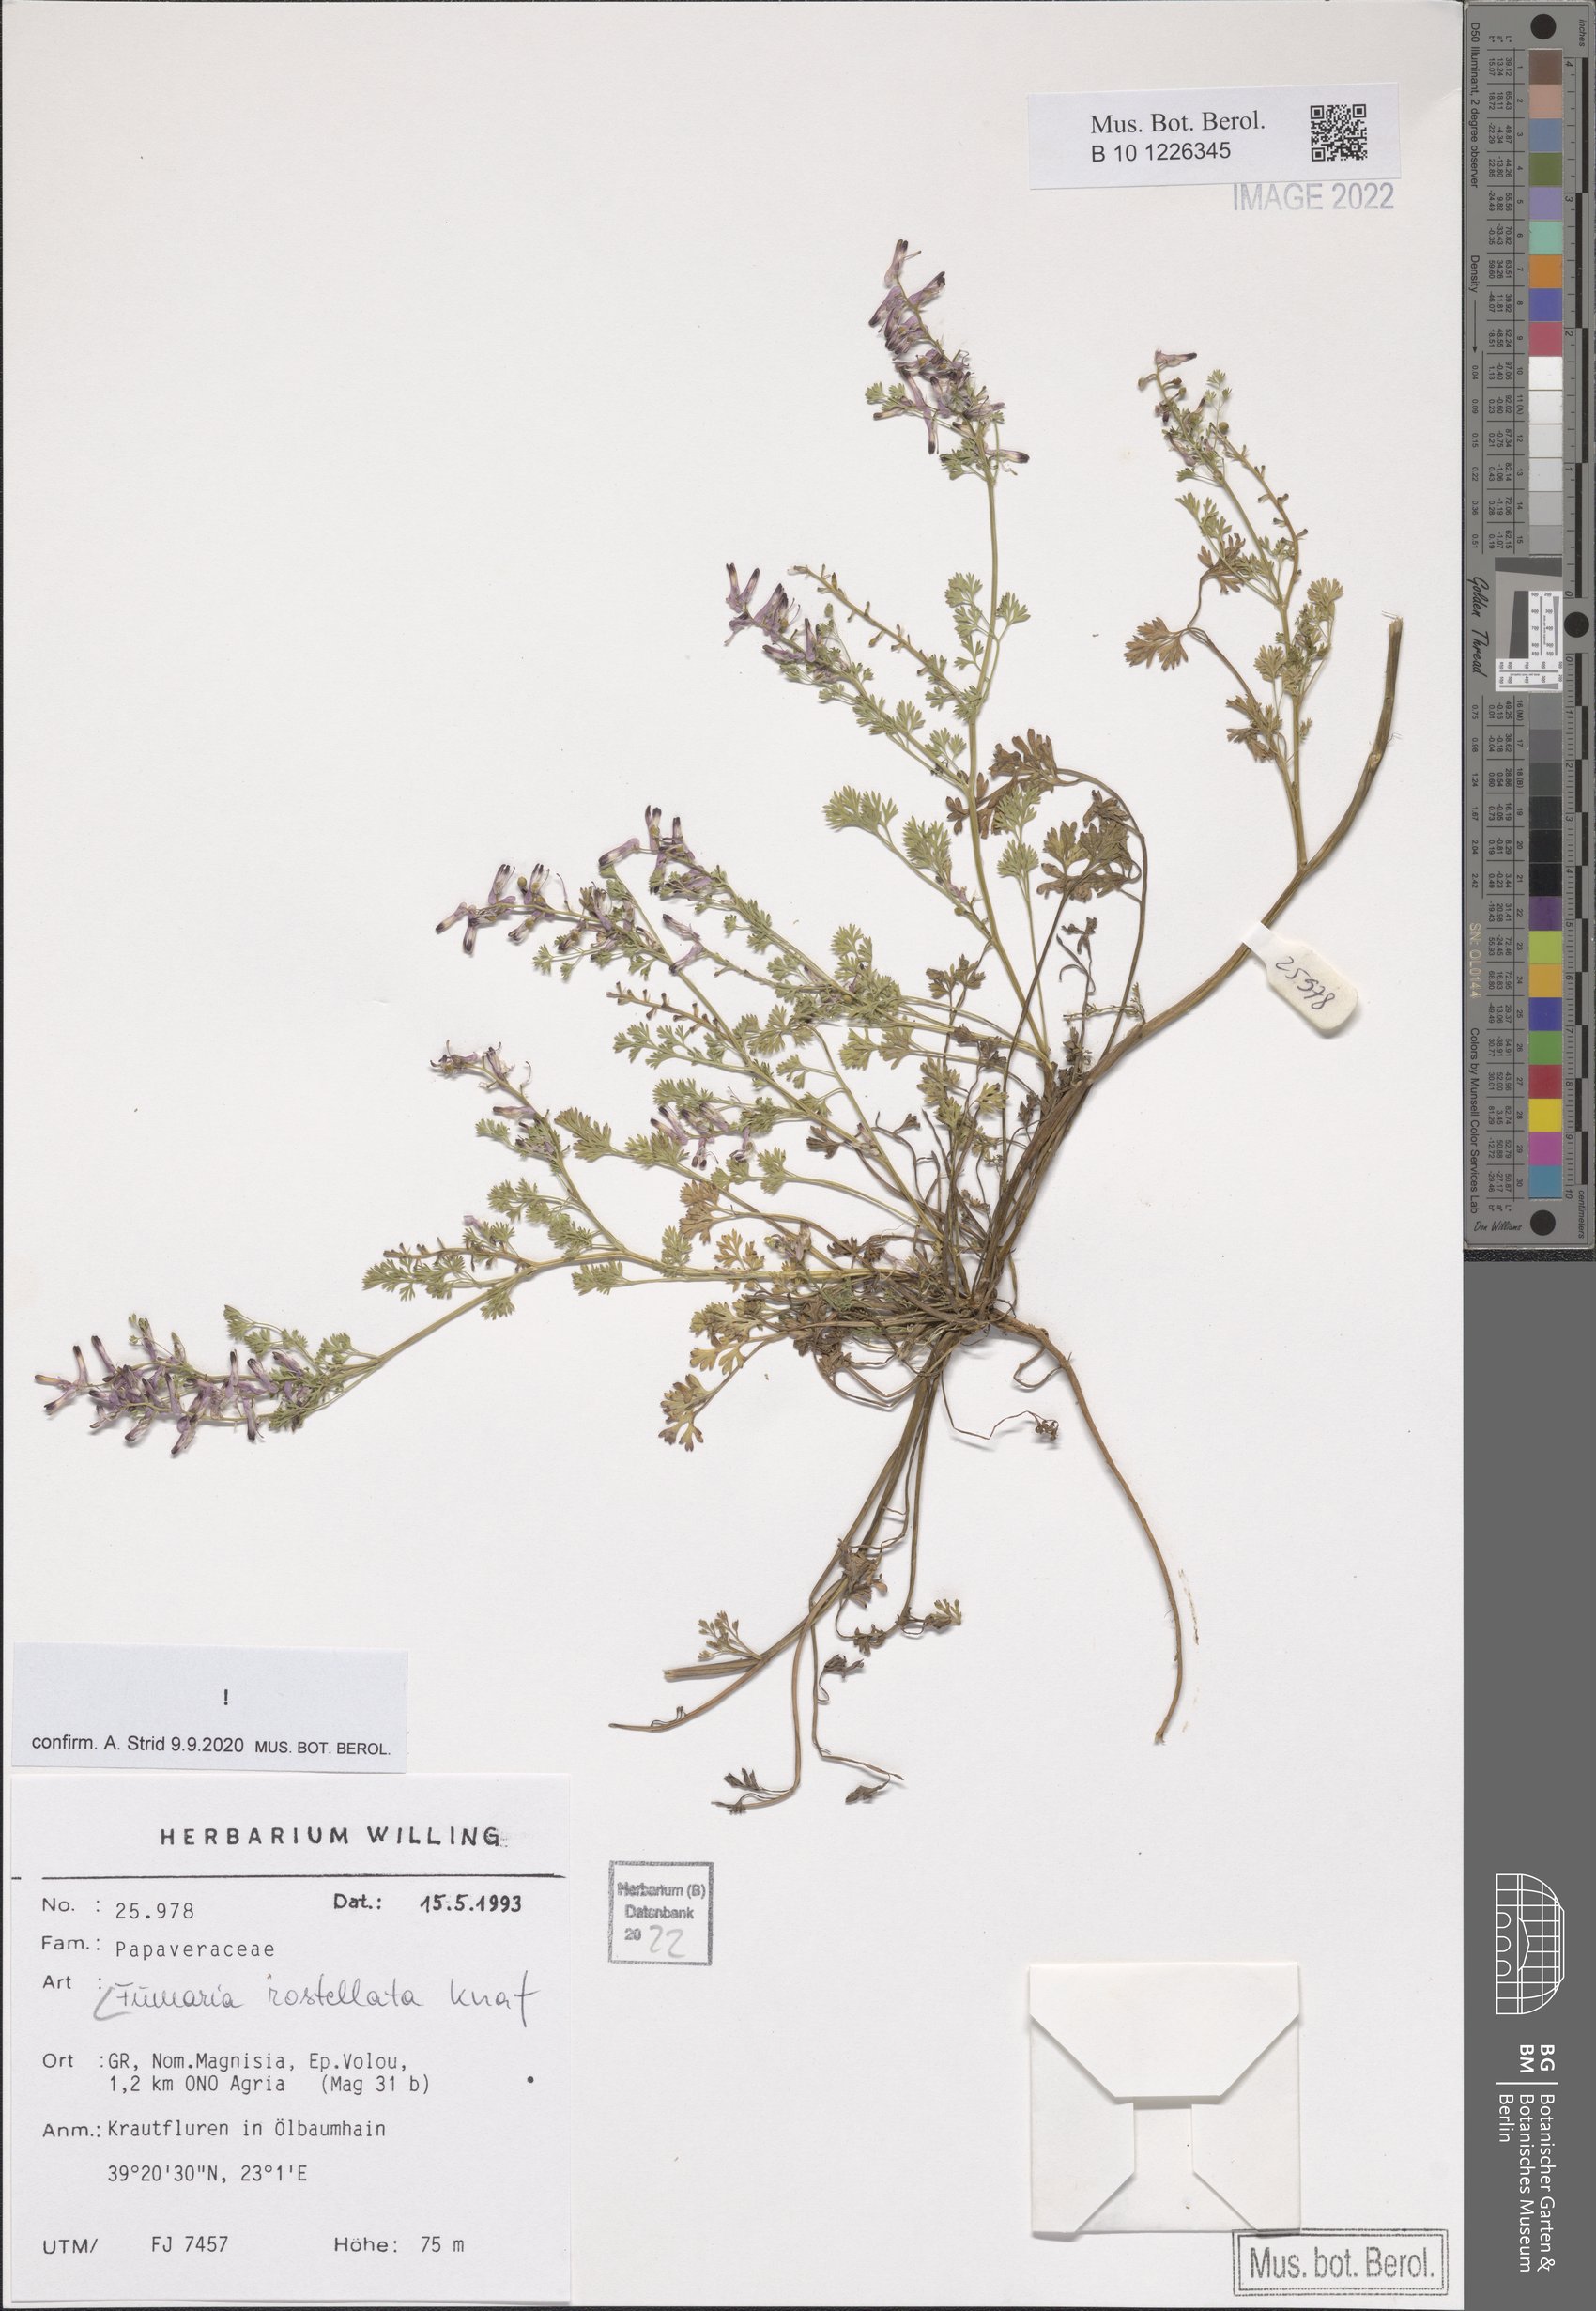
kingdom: Plantae
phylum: Tracheophyta
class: Magnoliopsida
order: Ranunculales
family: Papaveraceae
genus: Fumaria
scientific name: Fumaria rostellata
